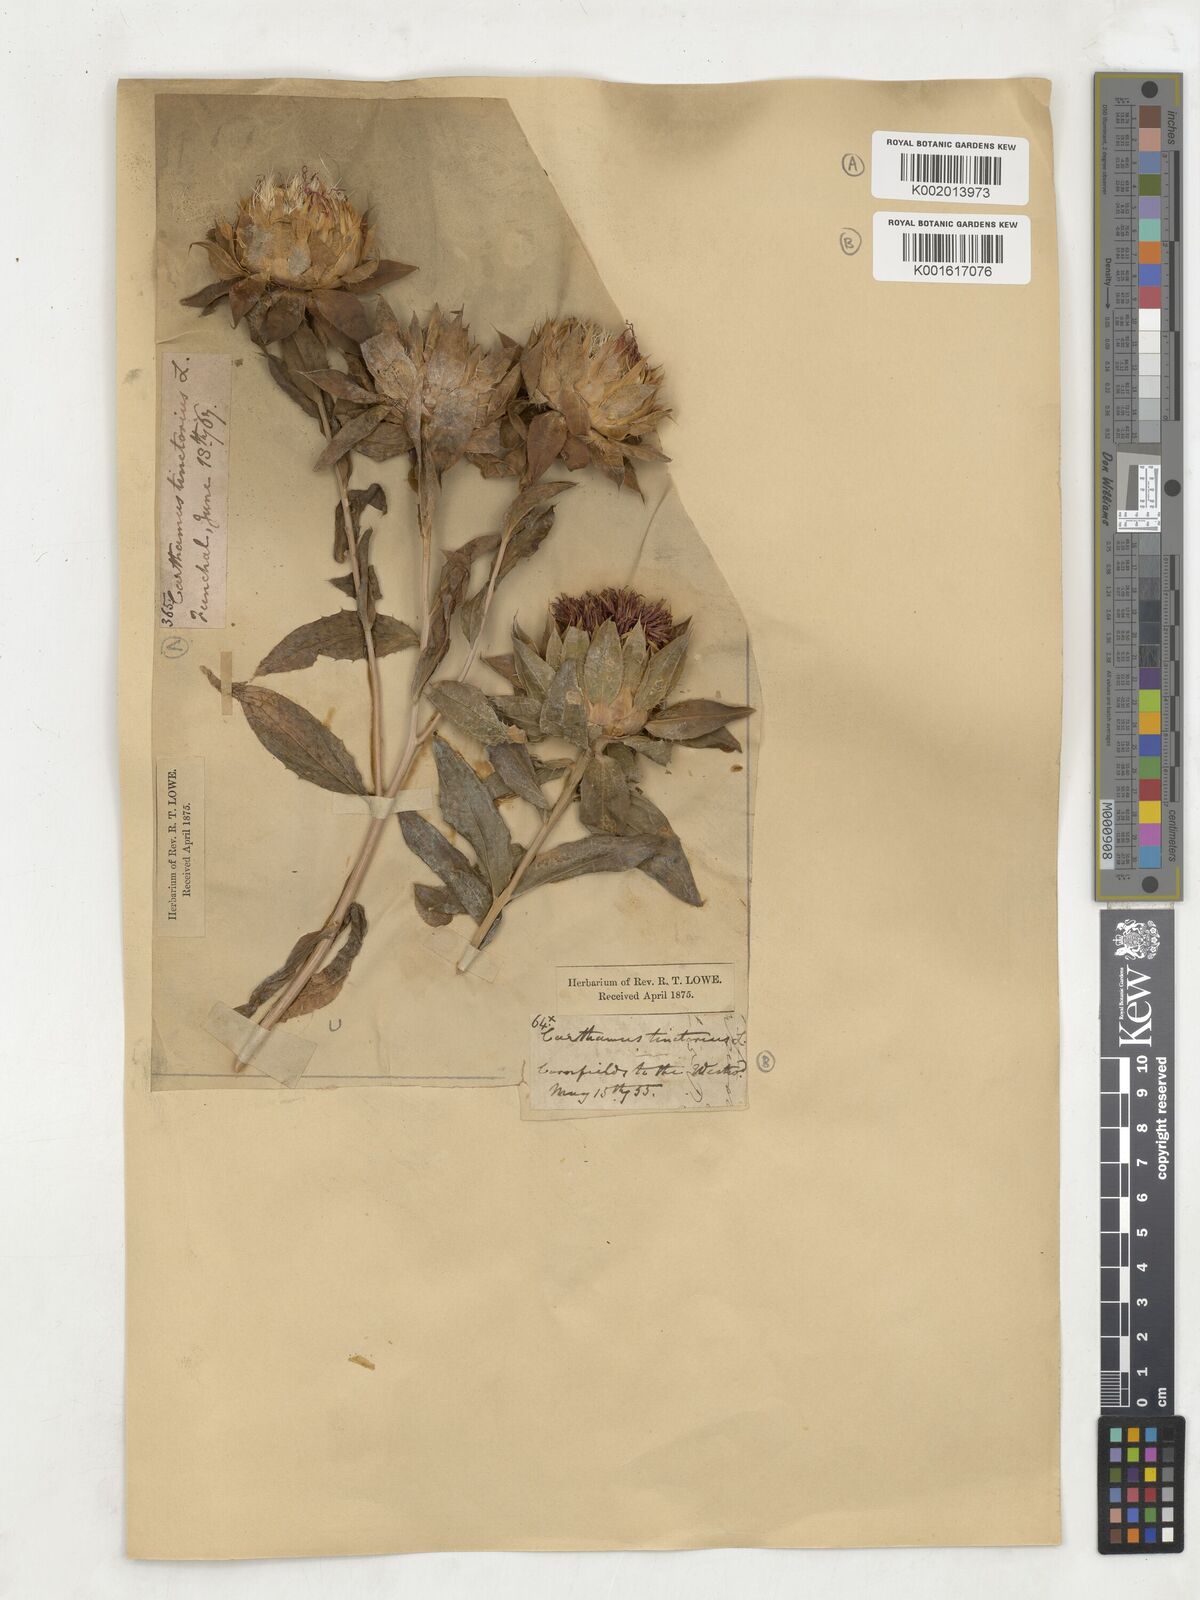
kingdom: Plantae
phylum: Tracheophyta
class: Magnoliopsida
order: Asterales
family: Asteraceae
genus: Carthamus
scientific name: Carthamus tinctorius
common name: Safflower
